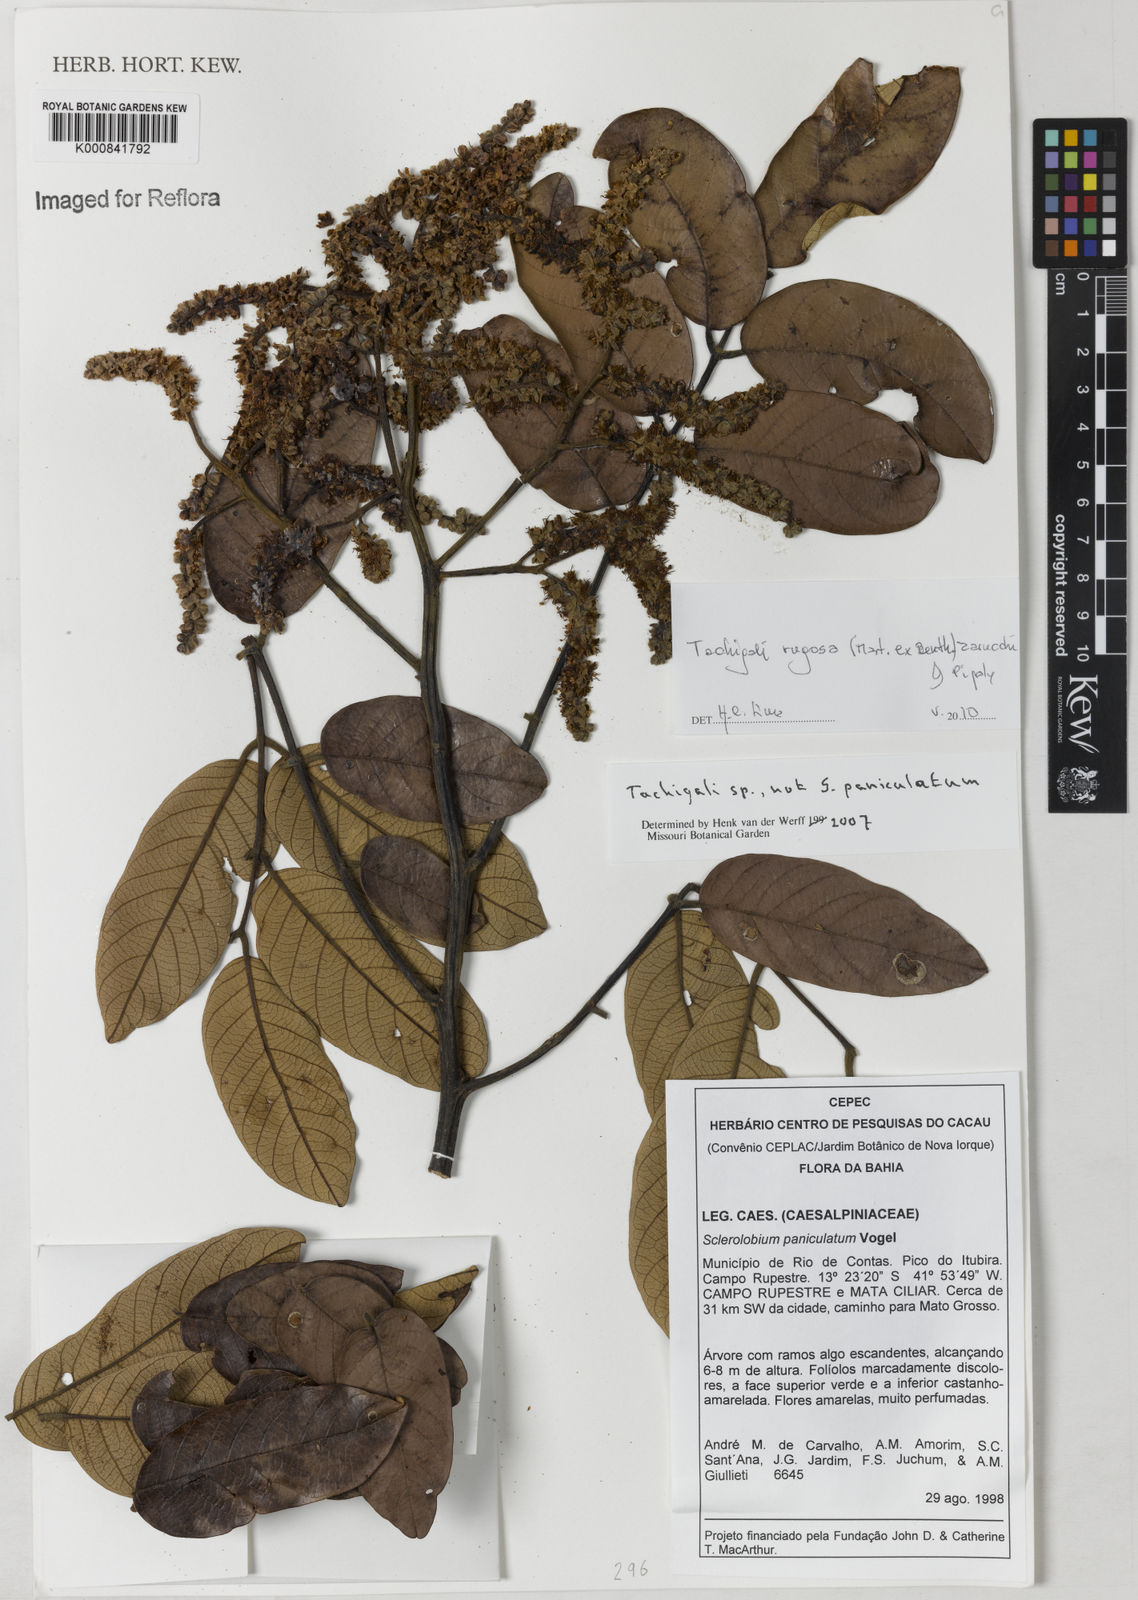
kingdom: Plantae
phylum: Tracheophyta
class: Magnoliopsida
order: Fabales
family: Fabaceae
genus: Tachigali
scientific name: Tachigali rugosa
